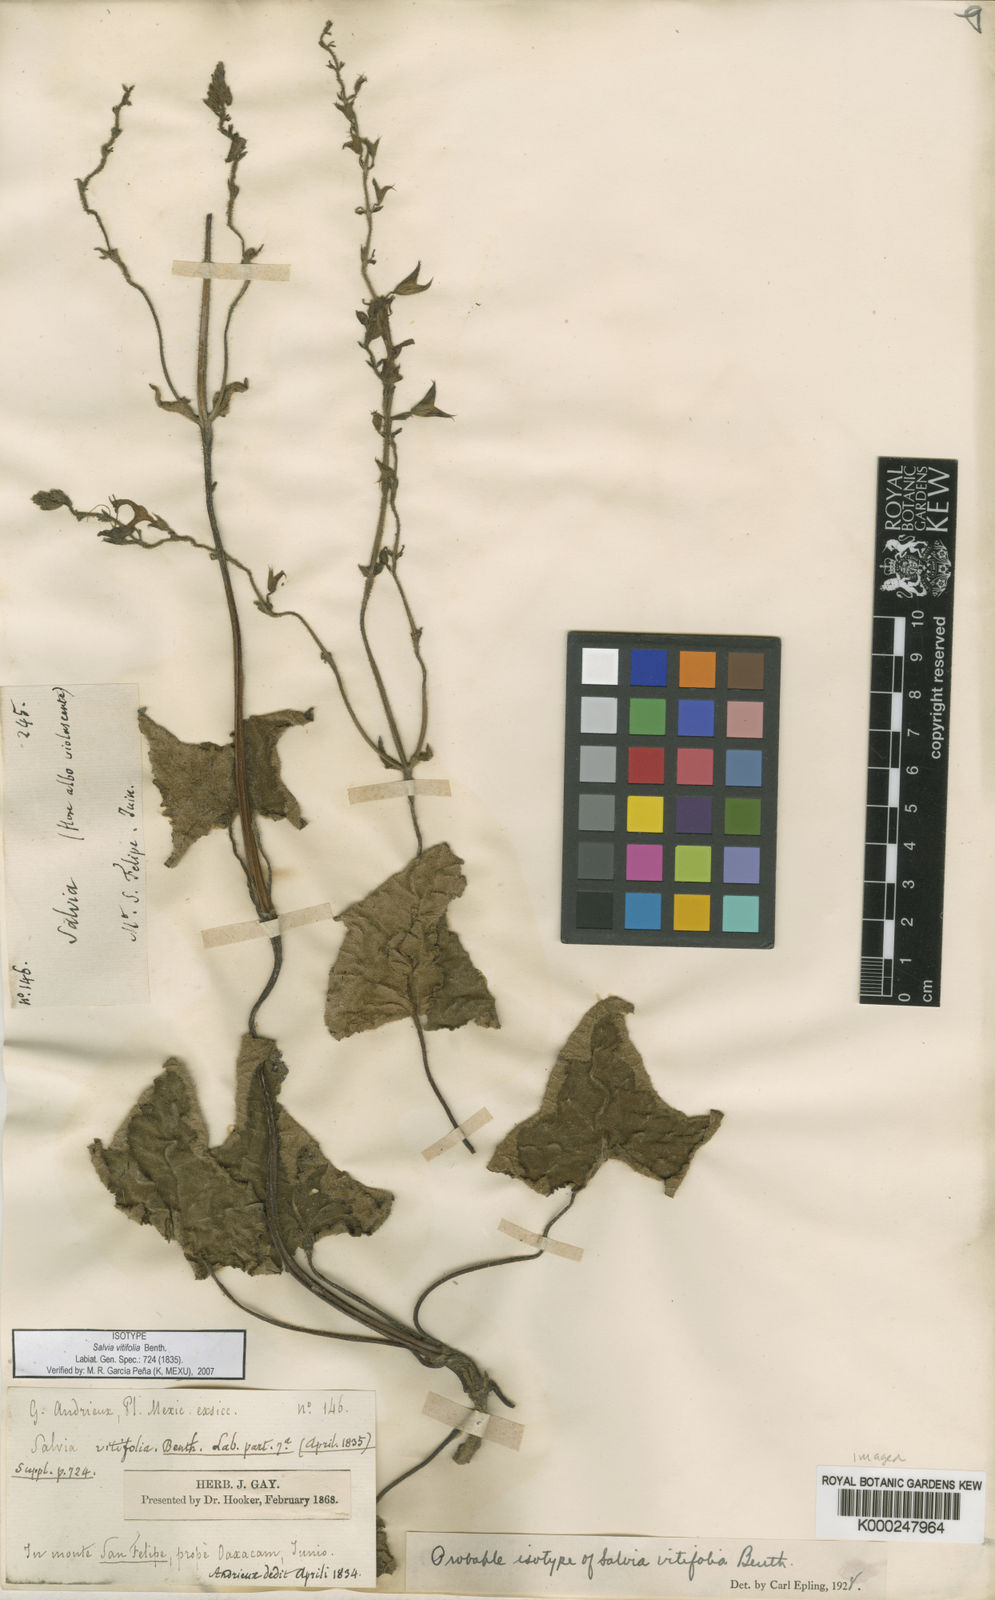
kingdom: Plantae
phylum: Tracheophyta
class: Magnoliopsida
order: Lamiales
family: Lamiaceae
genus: Salvia
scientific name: Salvia vitifolia
